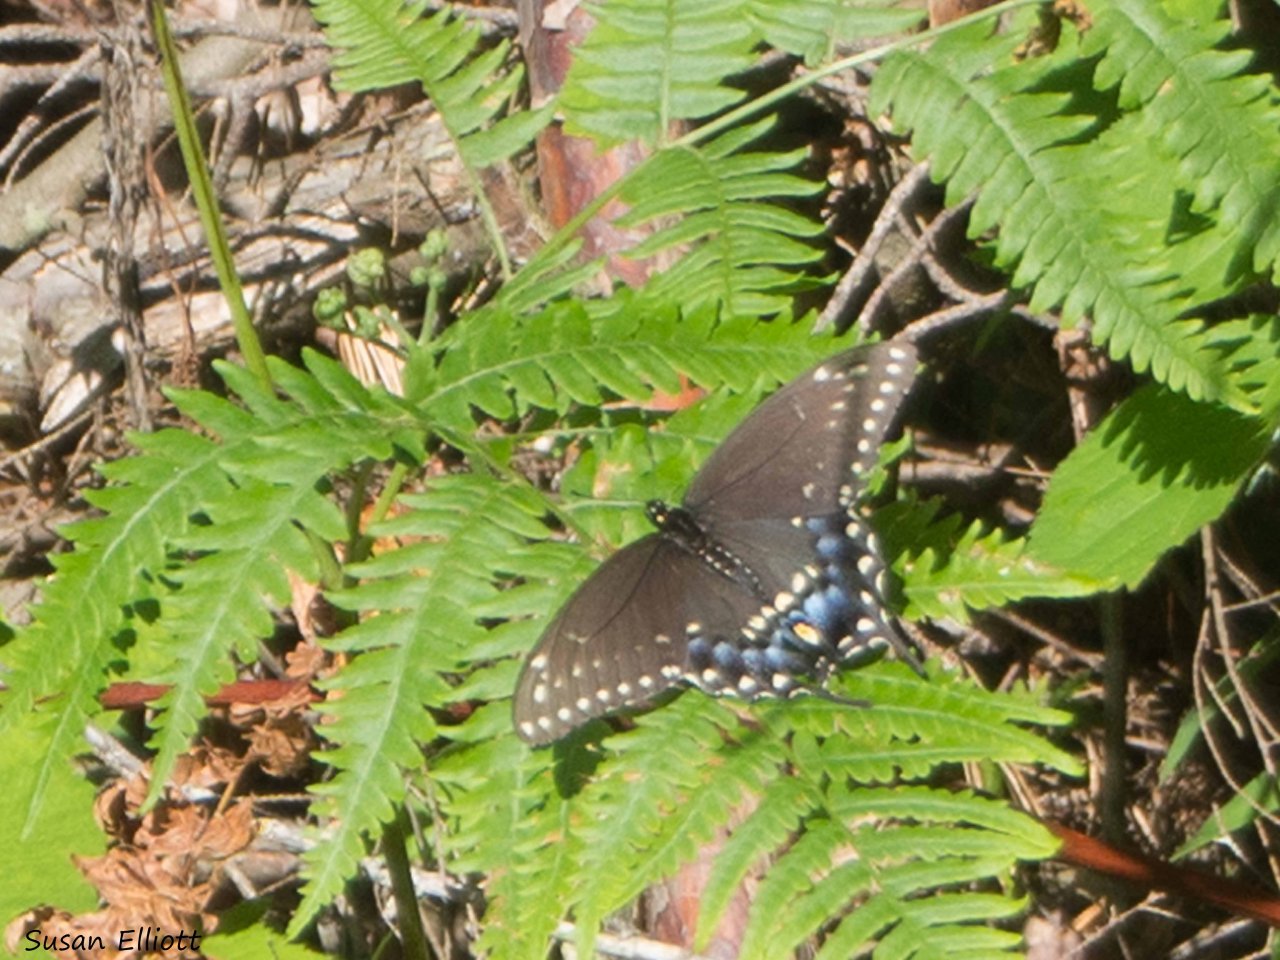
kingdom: Animalia
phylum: Arthropoda
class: Insecta
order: Lepidoptera
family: Papilionidae
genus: Papilio
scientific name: Papilio polyxenes
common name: Black Swallowtail
